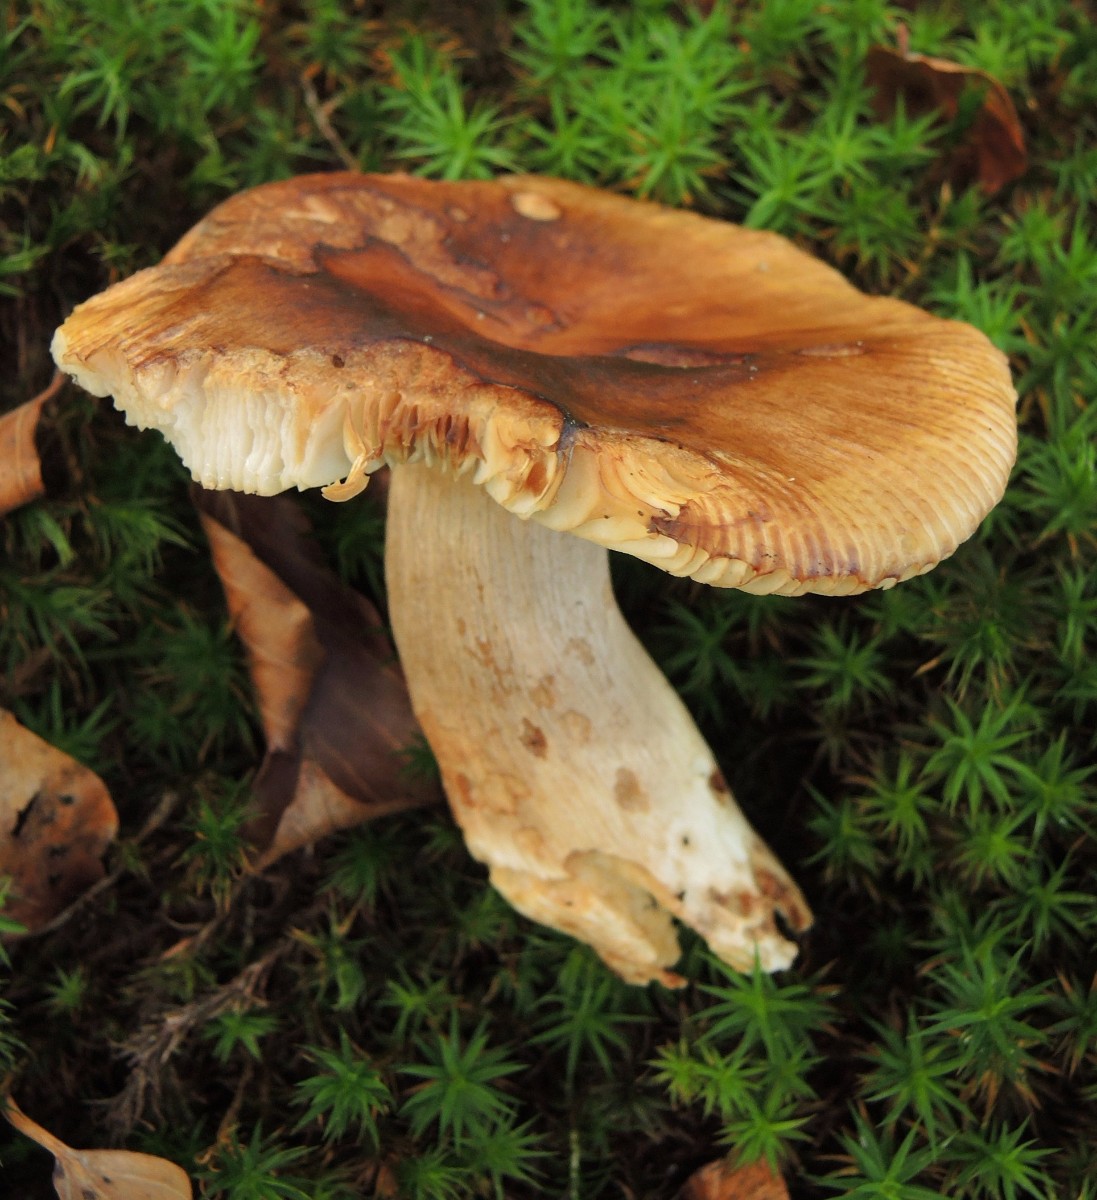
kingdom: Fungi
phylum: Basidiomycota
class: Agaricomycetes
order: Russulales
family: Russulaceae
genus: Russula
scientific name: Russula grata
